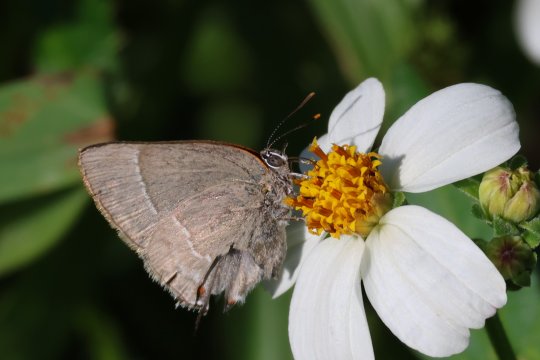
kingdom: Animalia
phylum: Arthropoda
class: Insecta
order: Lepidoptera
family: Lycaenidae
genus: Thecla
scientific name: Thecla marius
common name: Marius Hairstreak
